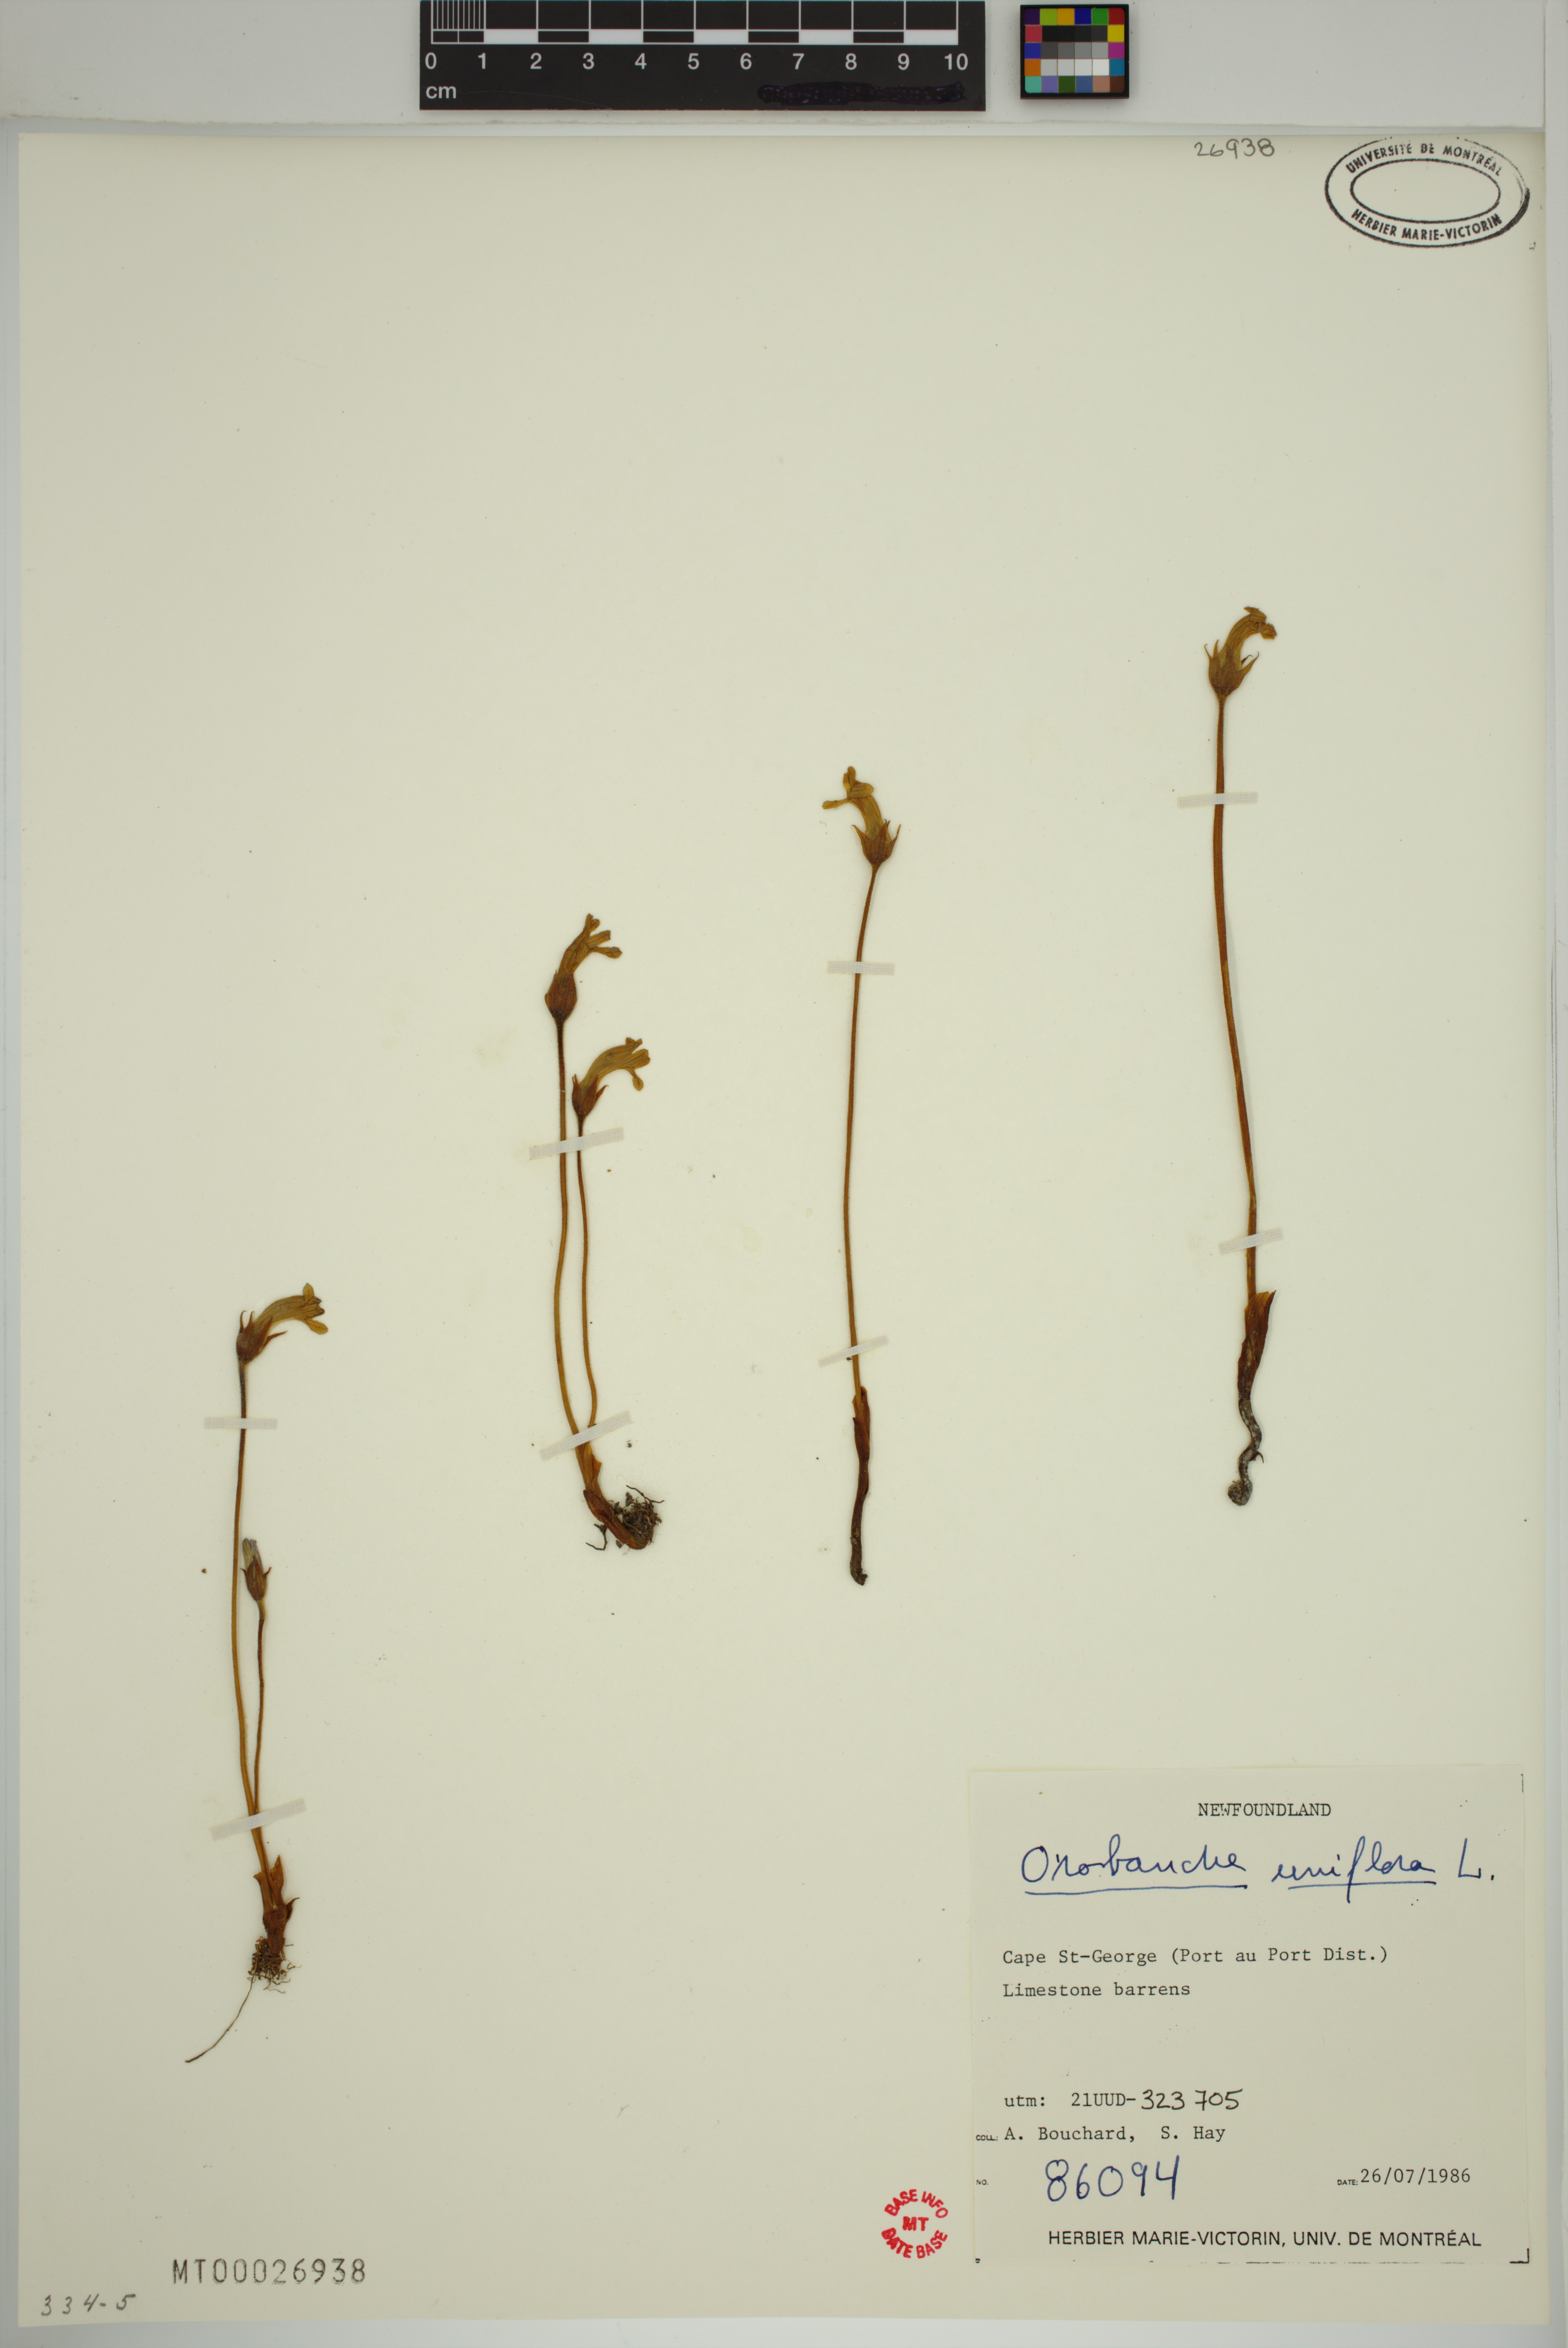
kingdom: Plantae
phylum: Tracheophyta
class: Magnoliopsida
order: Lamiales
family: Orobanchaceae
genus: Aphyllon
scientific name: Aphyllon uniflorum
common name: One-flowered broomrape
